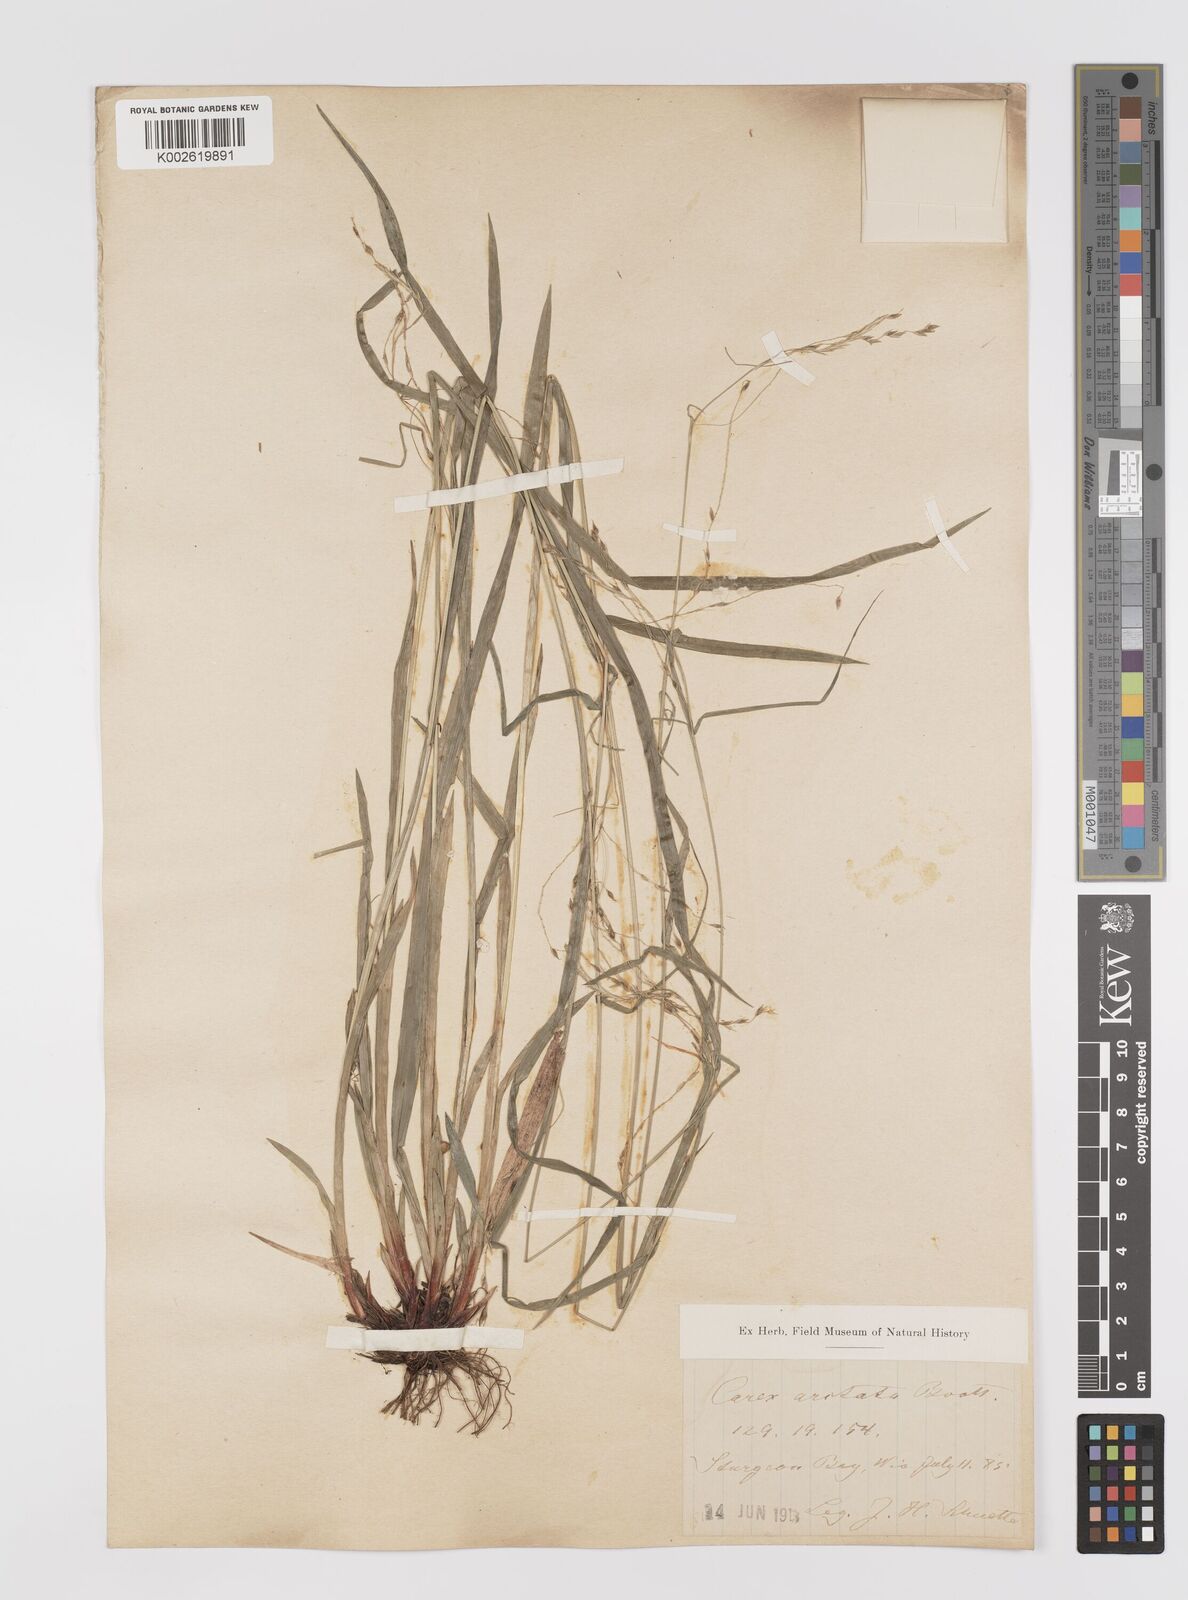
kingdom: Plantae
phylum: Tracheophyta
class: Liliopsida
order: Poales
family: Cyperaceae
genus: Carex
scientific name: Carex arctata
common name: Black sedge
